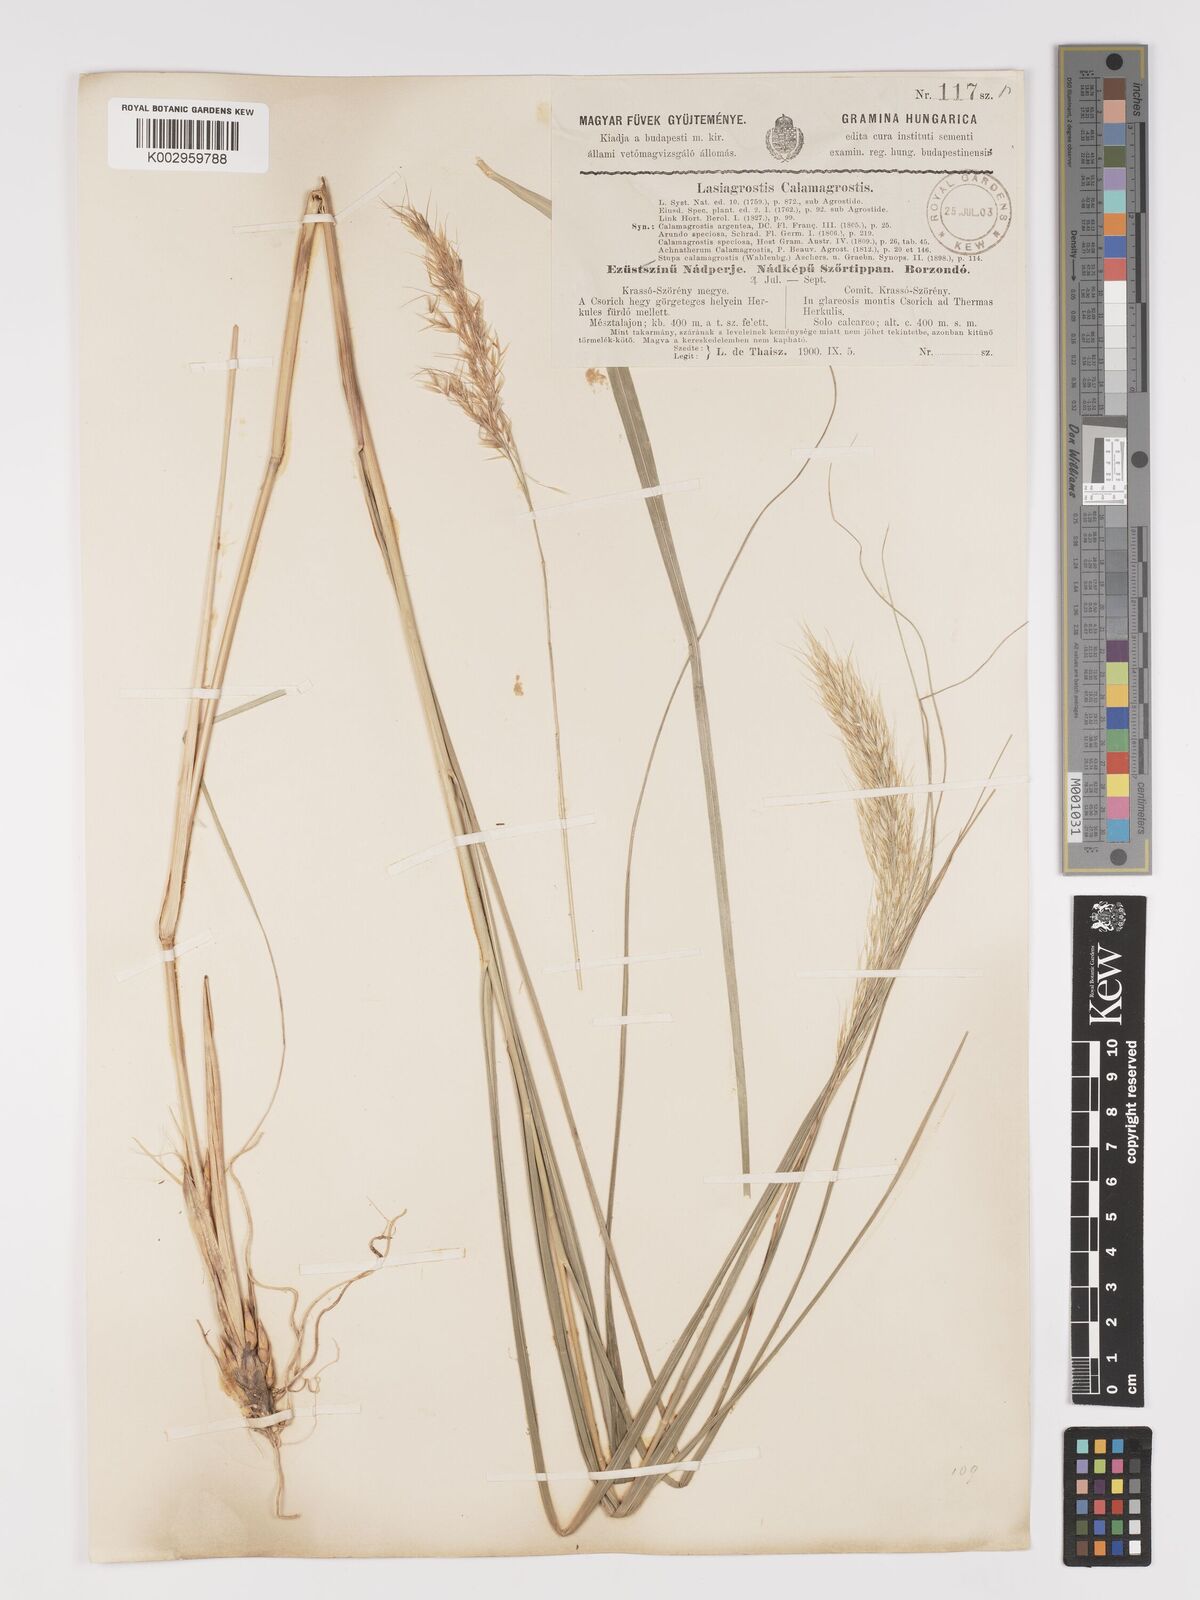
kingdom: Plantae
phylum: Tracheophyta
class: Liliopsida
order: Poales
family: Poaceae
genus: Achnatherum
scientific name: Achnatherum calamagrostis
